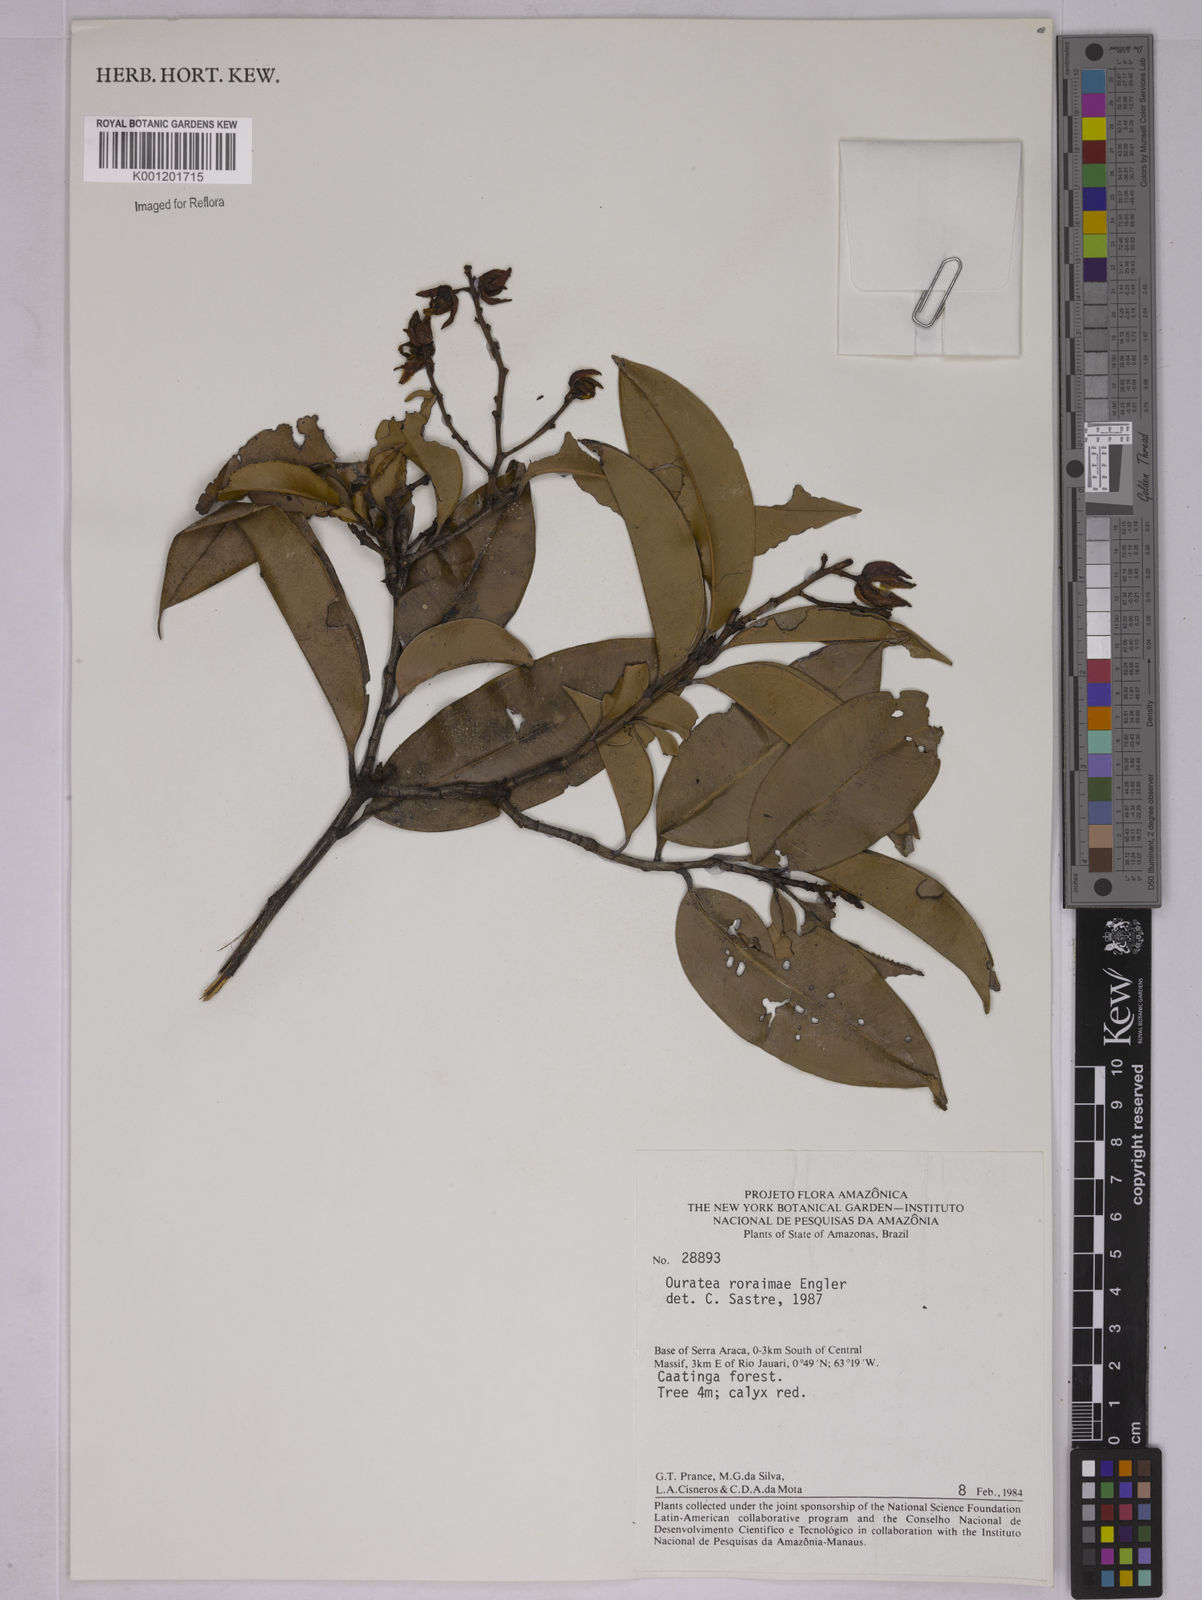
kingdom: Plantae
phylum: Tracheophyta
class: Magnoliopsida
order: Malpighiales
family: Ochnaceae
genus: Ouratea
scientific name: Ouratea roraimae
